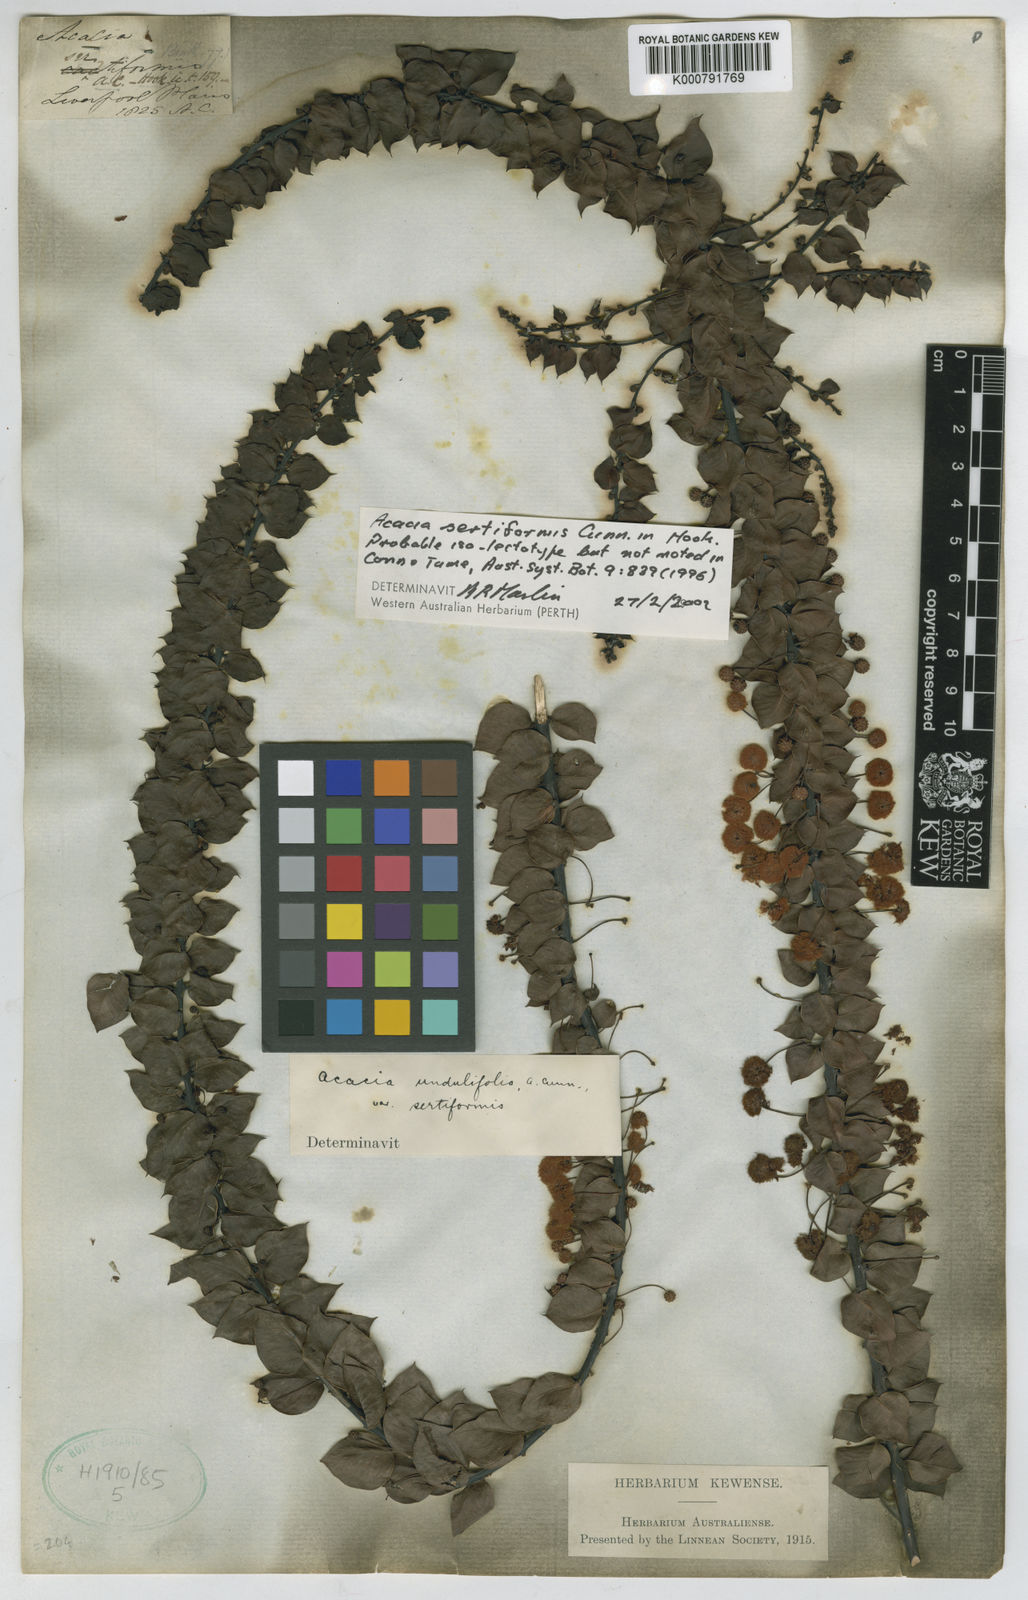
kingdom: Plantae
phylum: Tracheophyta
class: Magnoliopsida
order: Fabales
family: Fabaceae
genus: Acacia
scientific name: Acacia sertiformis
